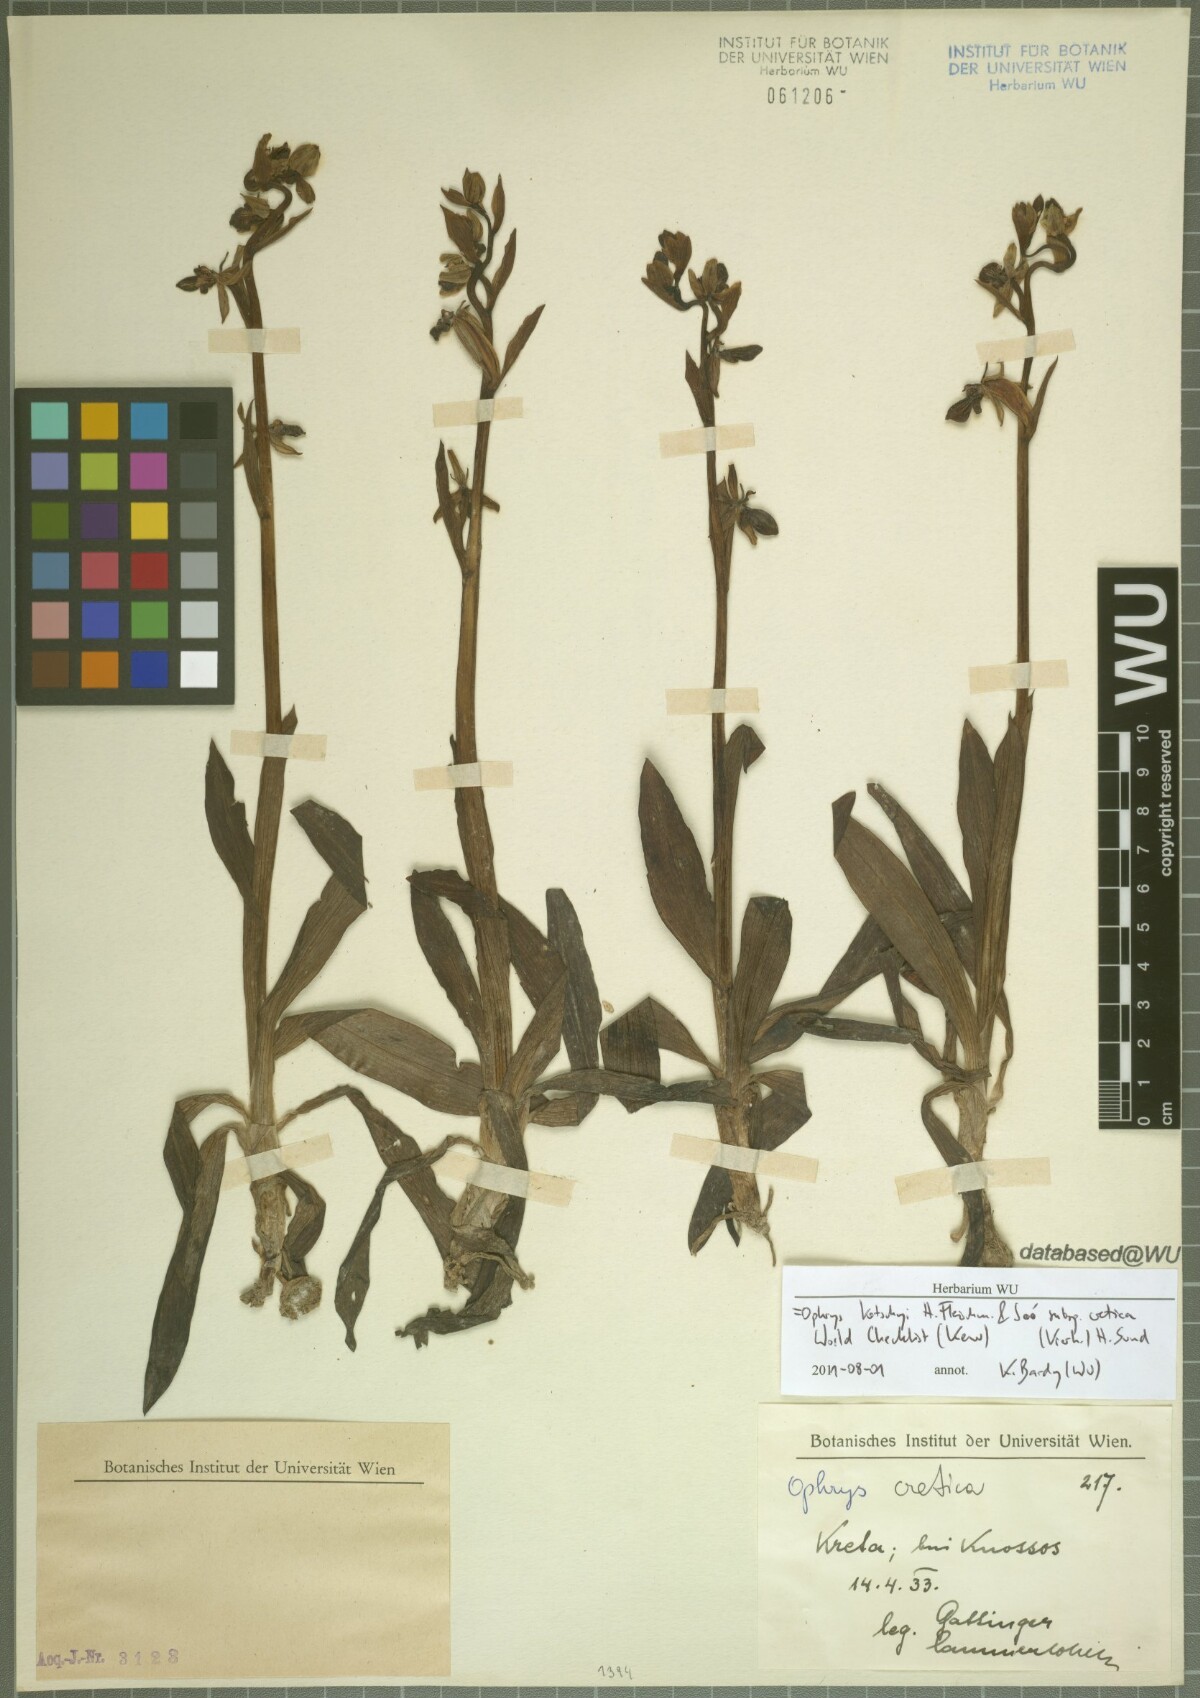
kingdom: Plantae
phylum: Tracheophyta
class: Liliopsida
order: Asparagales
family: Orchidaceae
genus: Ophrys
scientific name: Ophrys cretica
